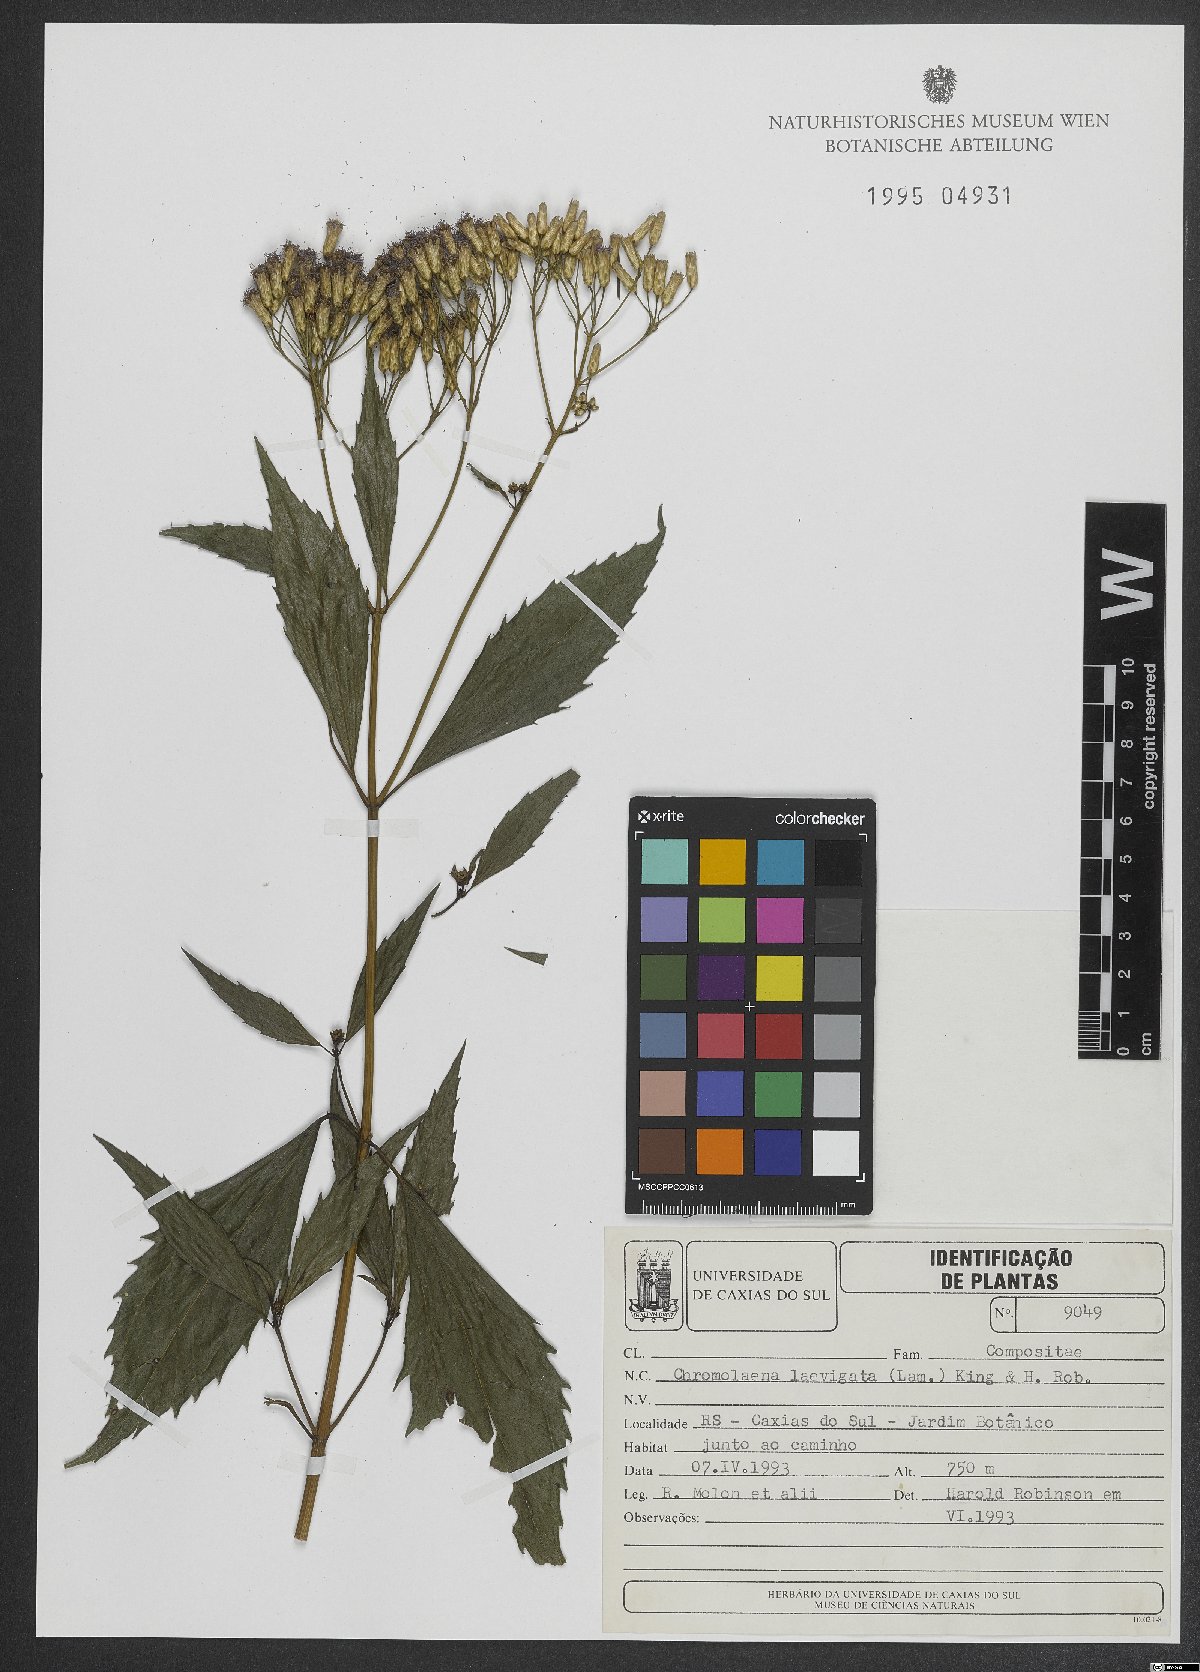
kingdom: Plantae
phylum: Tracheophyta
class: Magnoliopsida
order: Asterales
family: Asteraceae
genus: Chromolaena
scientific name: Chromolaena laevigata
